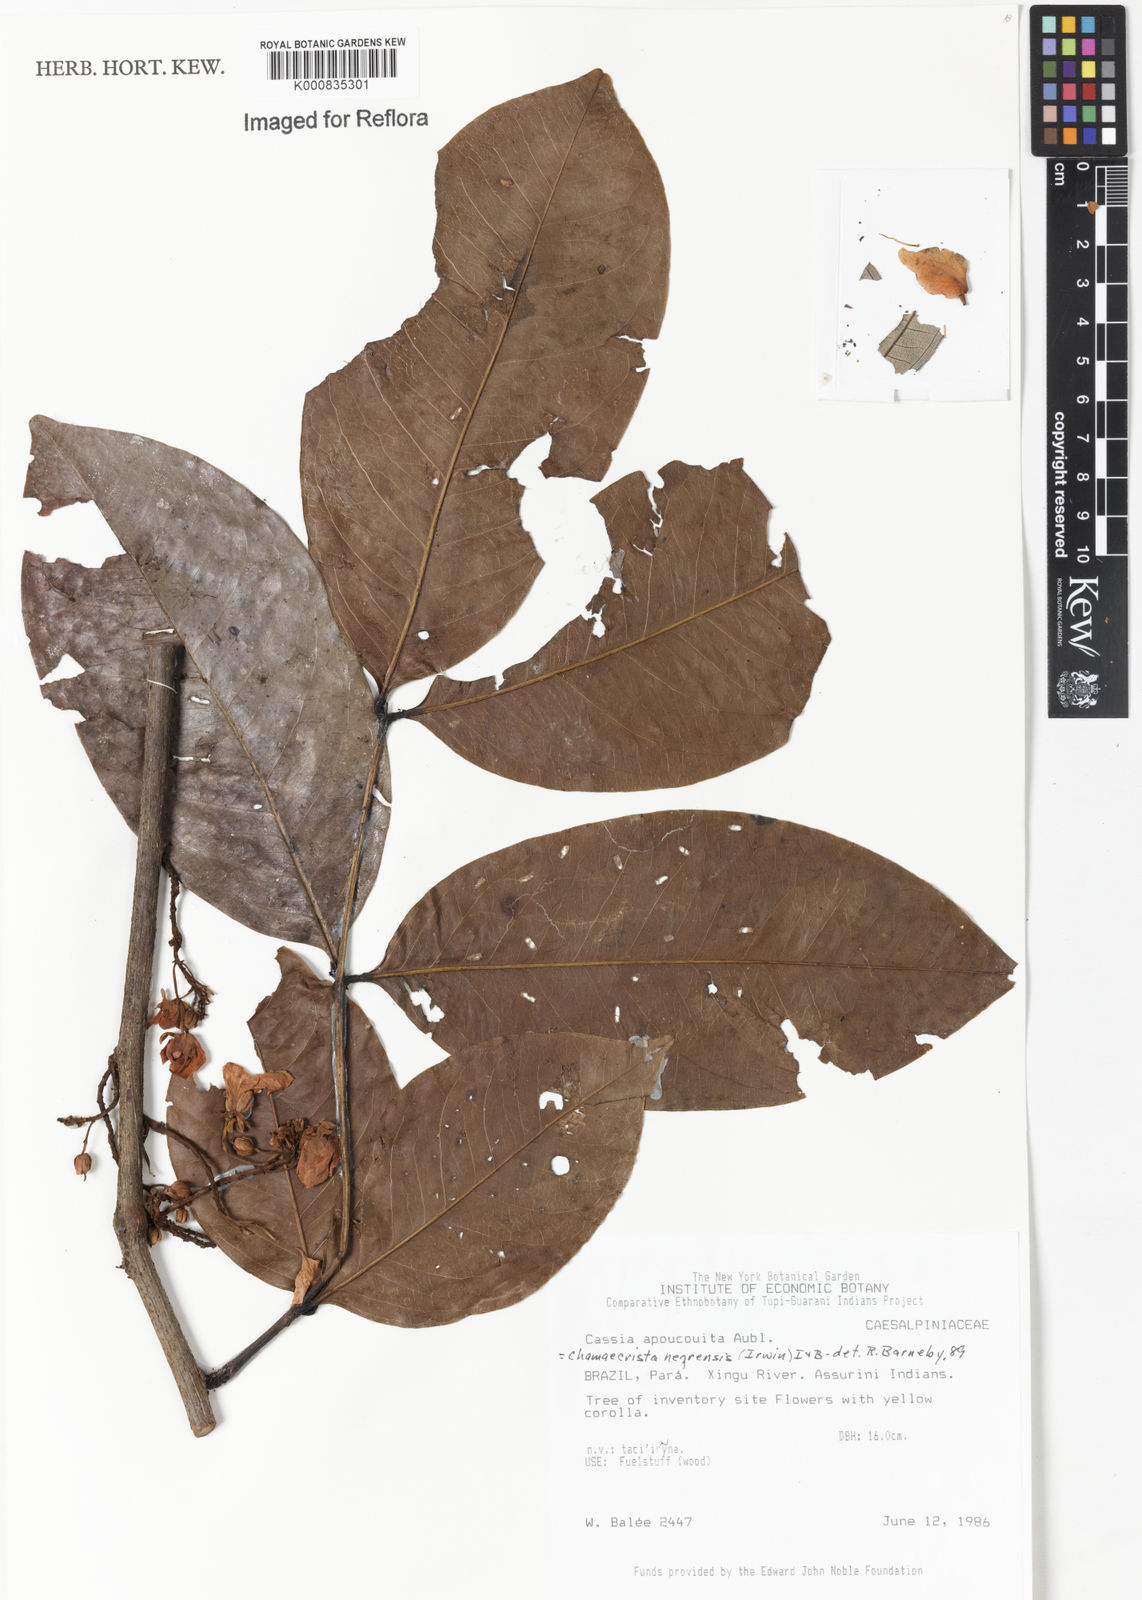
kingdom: Plantae
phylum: Tracheophyta
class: Magnoliopsida
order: Fabales
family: Fabaceae
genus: Chamaecrista
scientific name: Chamaecrista negrensis
